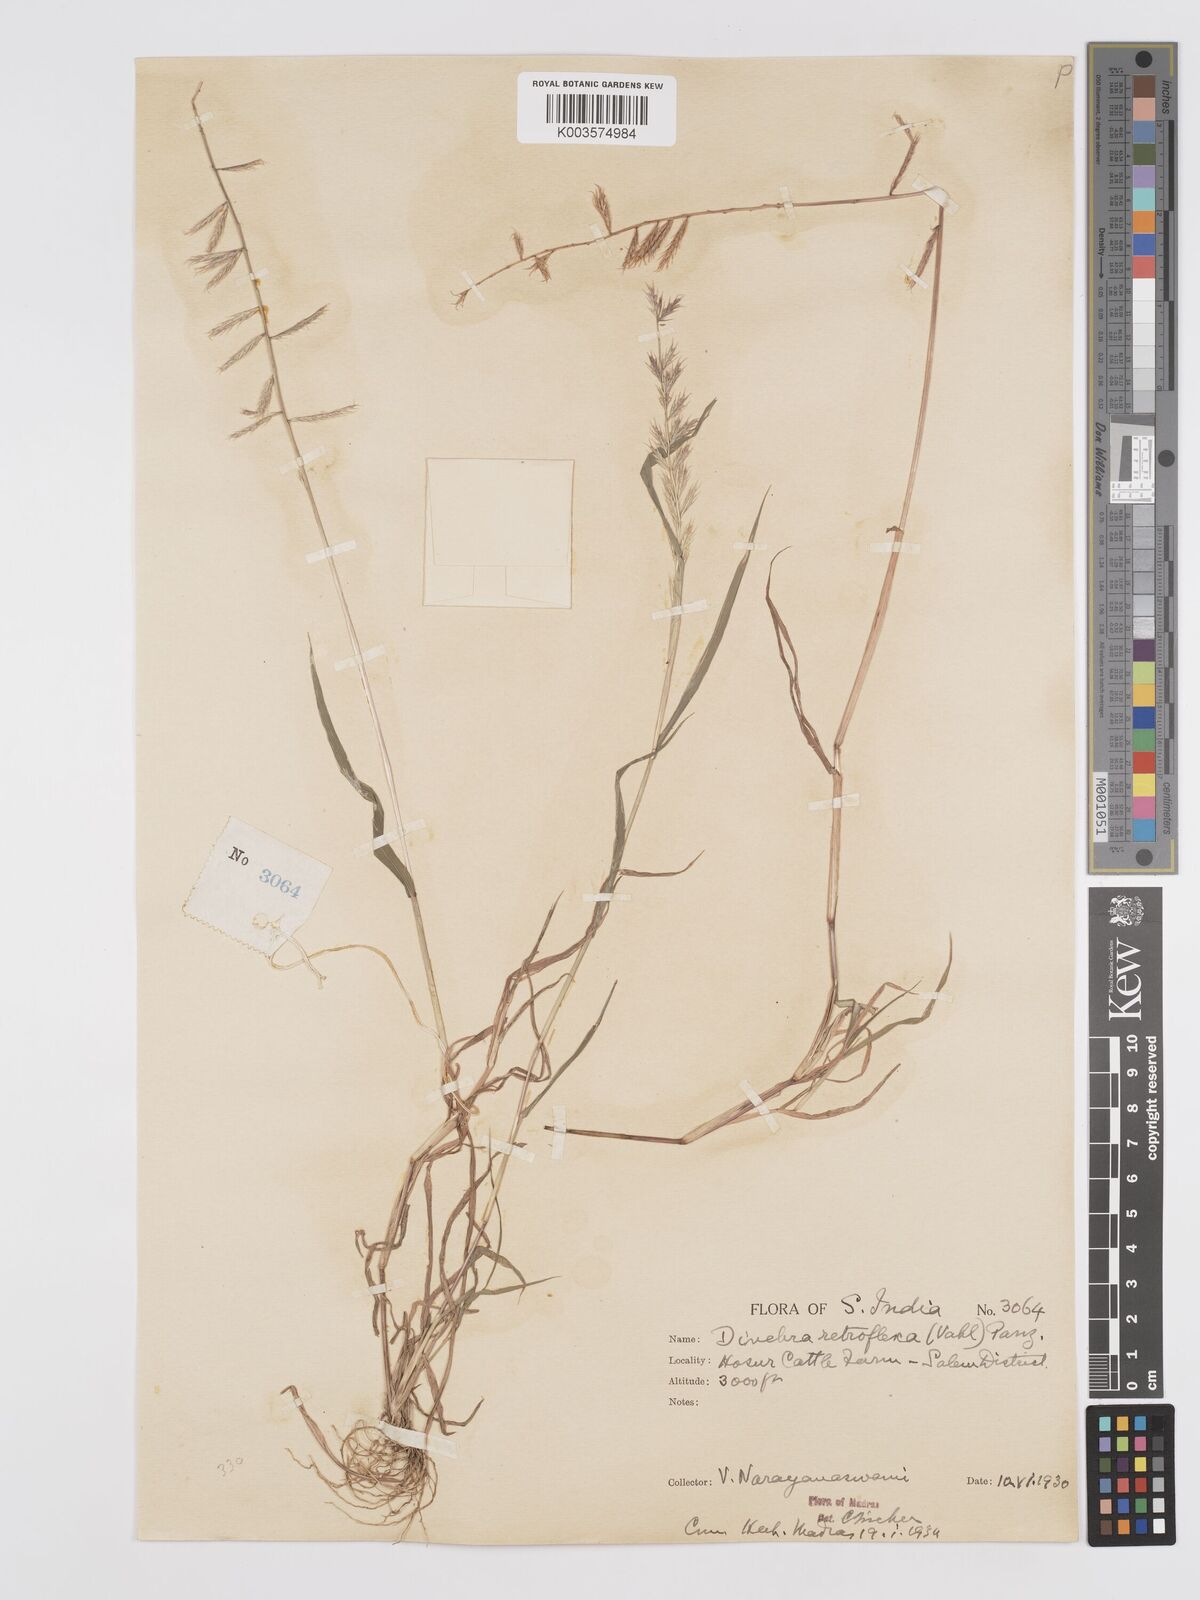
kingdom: Plantae
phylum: Tracheophyta
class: Liliopsida
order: Poales
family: Poaceae
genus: Dinebra
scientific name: Dinebra retroflexa
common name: Viper grass
